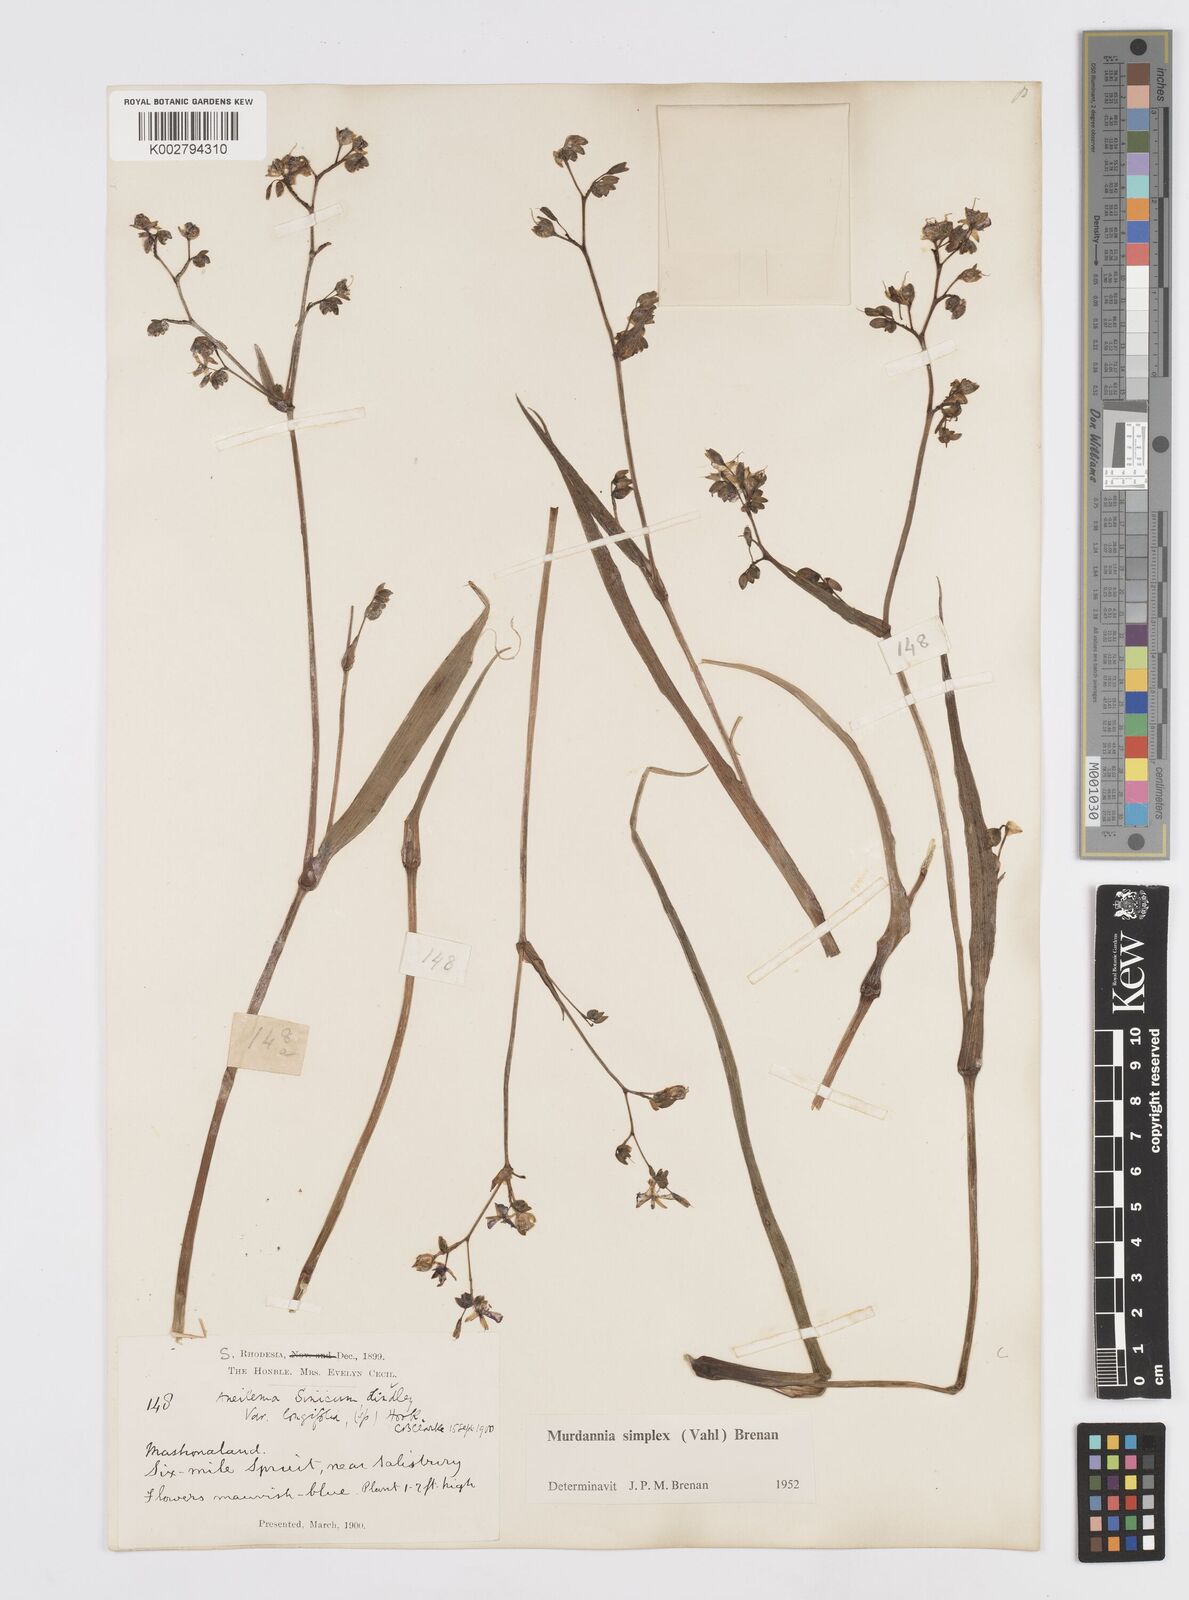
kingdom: Plantae
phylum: Tracheophyta
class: Liliopsida
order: Commelinales
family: Commelinaceae
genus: Murdannia
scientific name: Murdannia simplex
